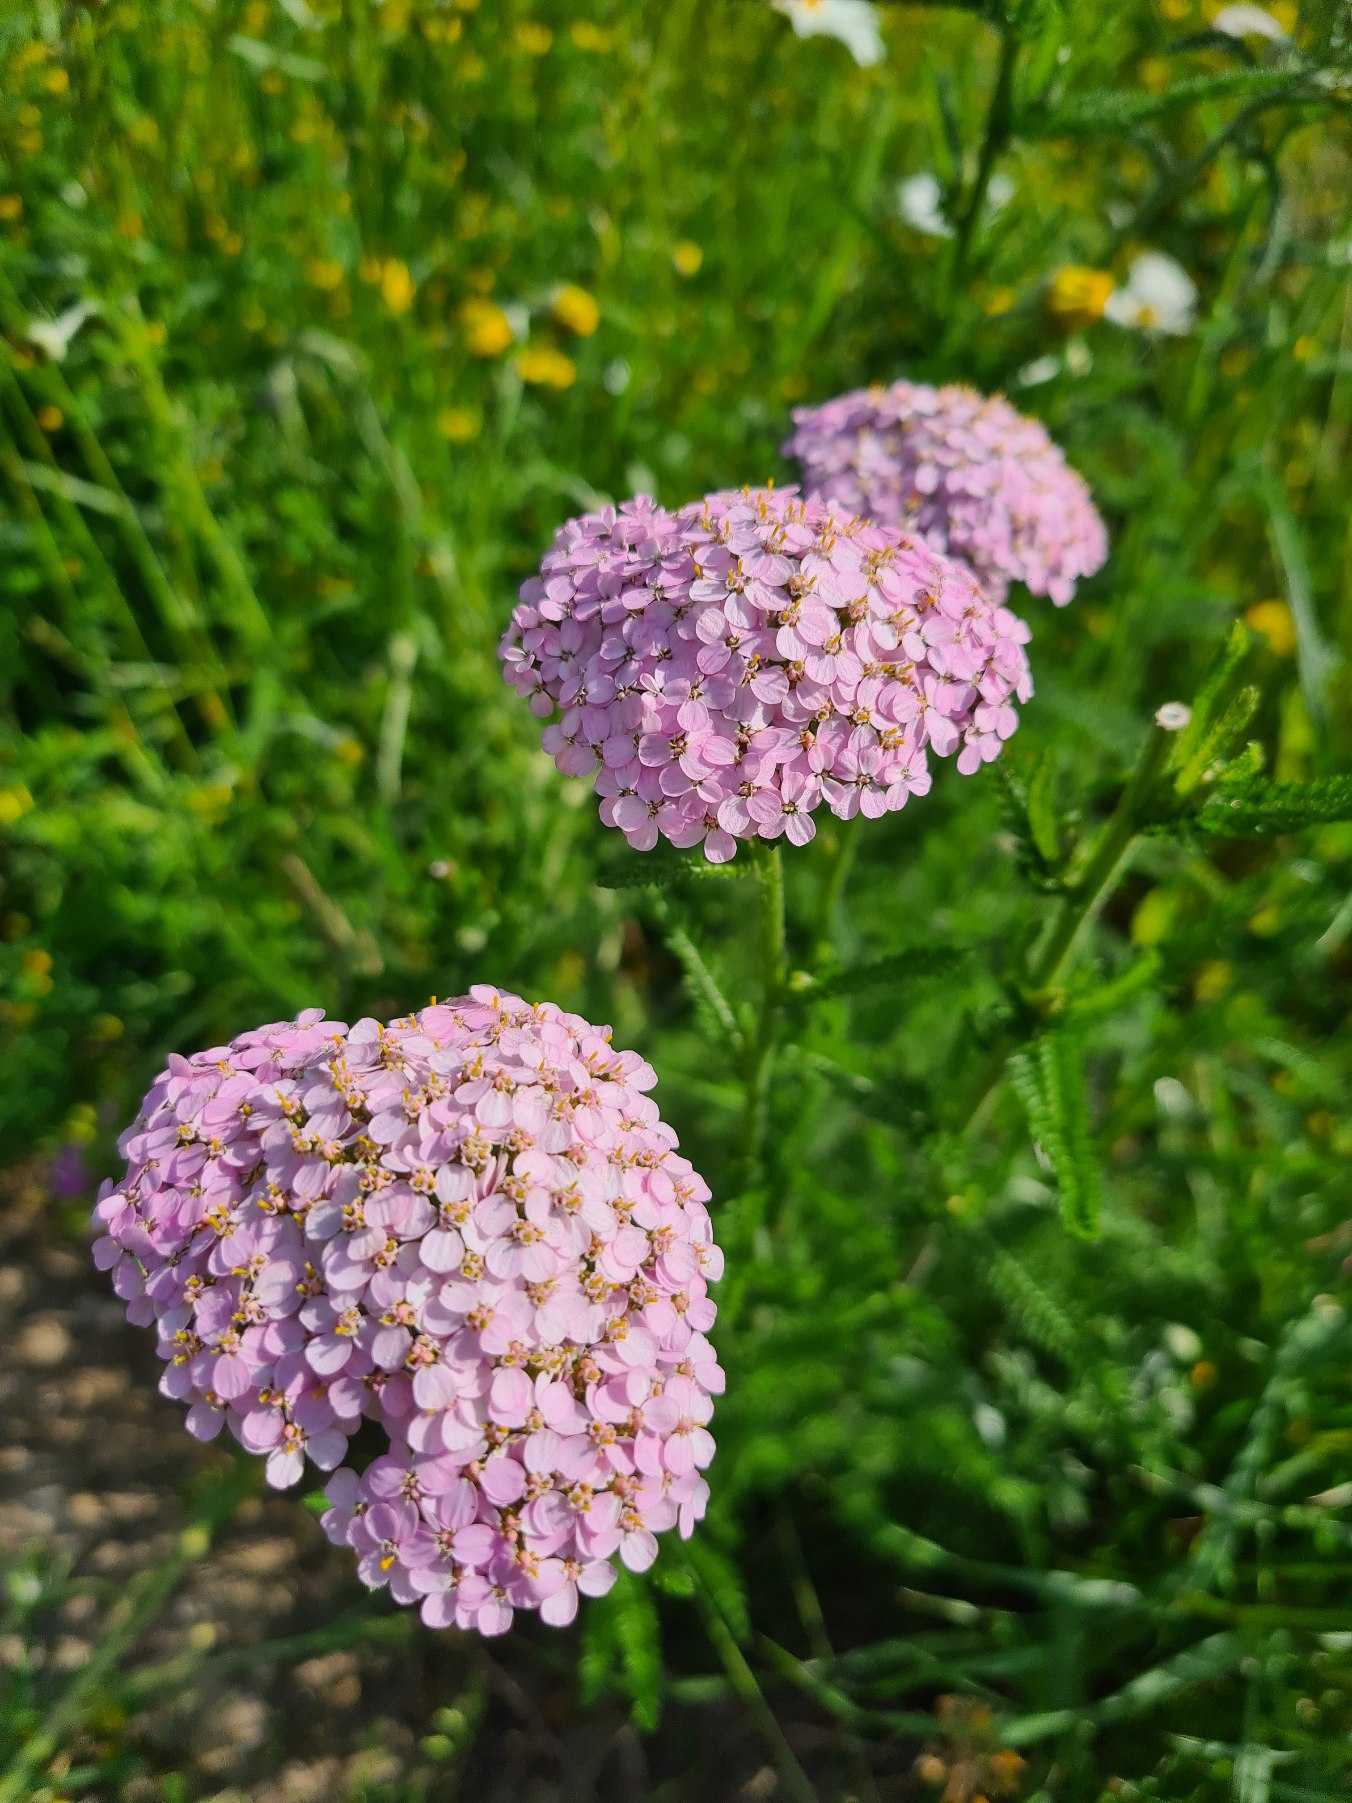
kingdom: Plantae
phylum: Tracheophyta
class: Magnoliopsida
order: Asterales
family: Asteraceae
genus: Achillea
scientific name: Achillea millefolium
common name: Almindelig røllike
